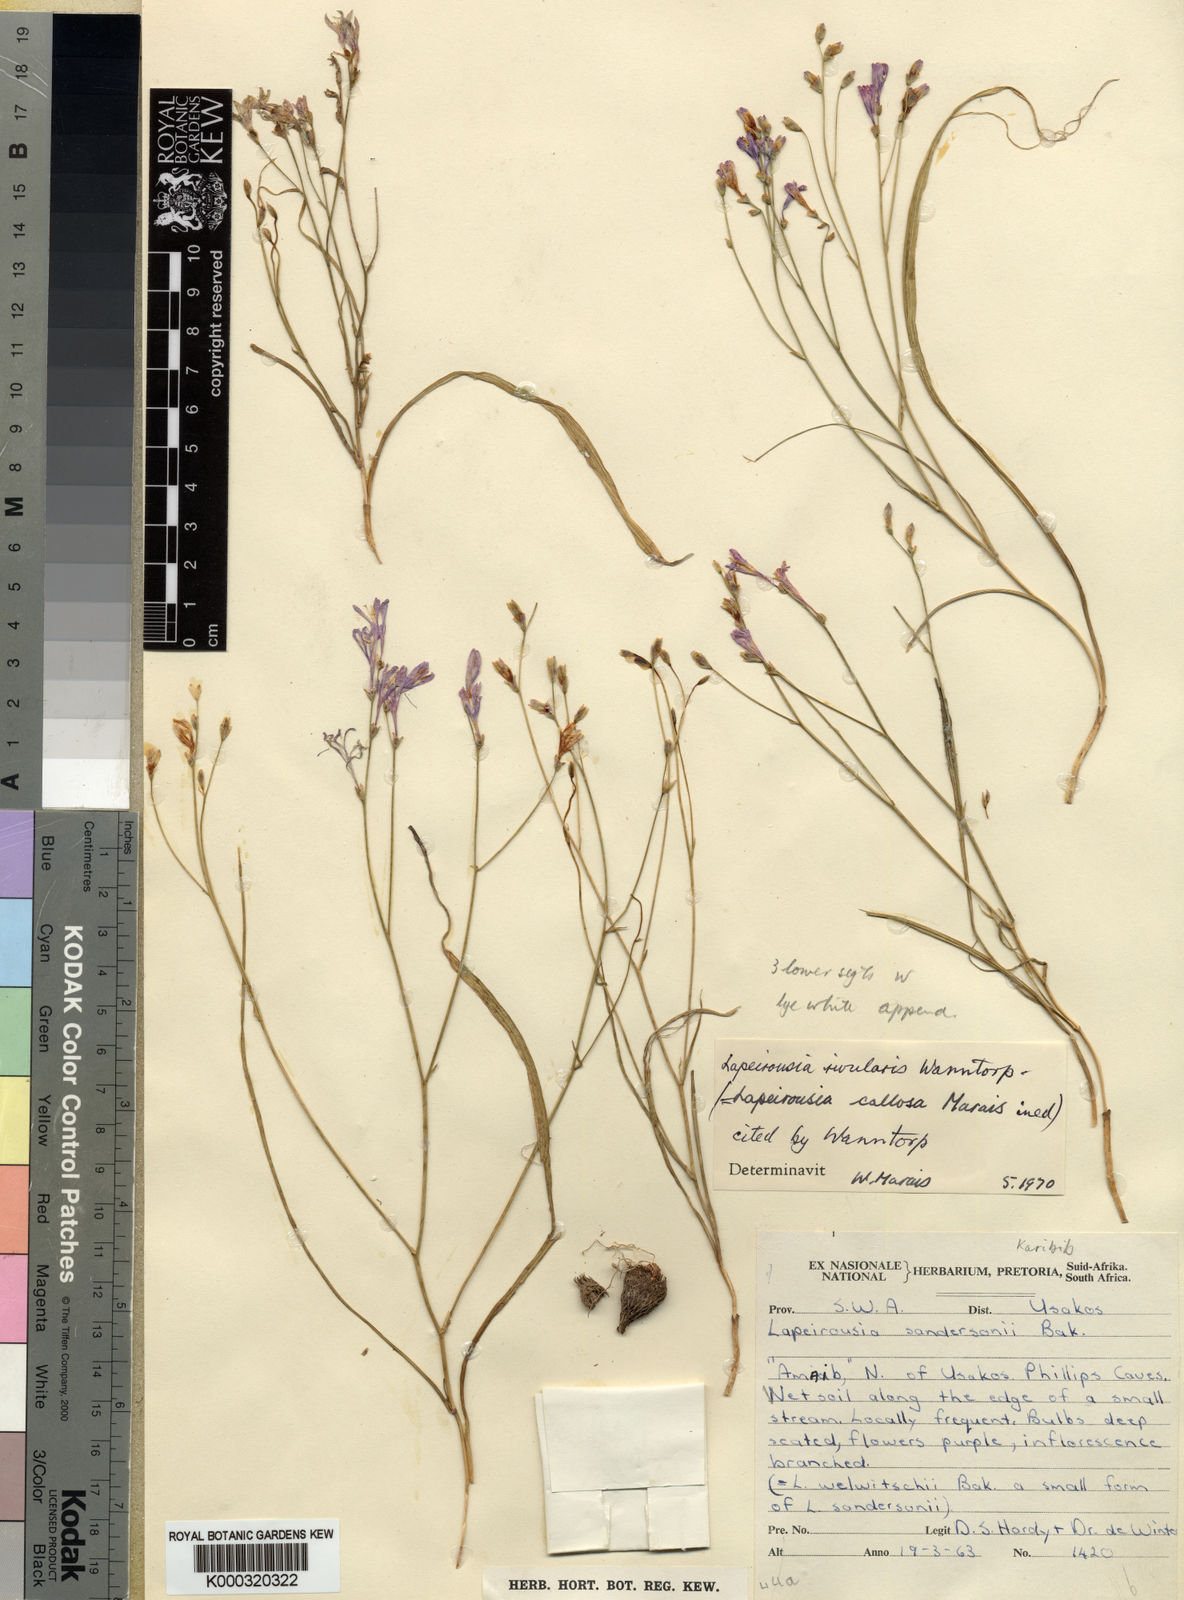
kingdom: Plantae
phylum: Tracheophyta
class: Liliopsida
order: Asparagales
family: Iridaceae
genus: Afrosolen
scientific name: Afrosolen rivularis
